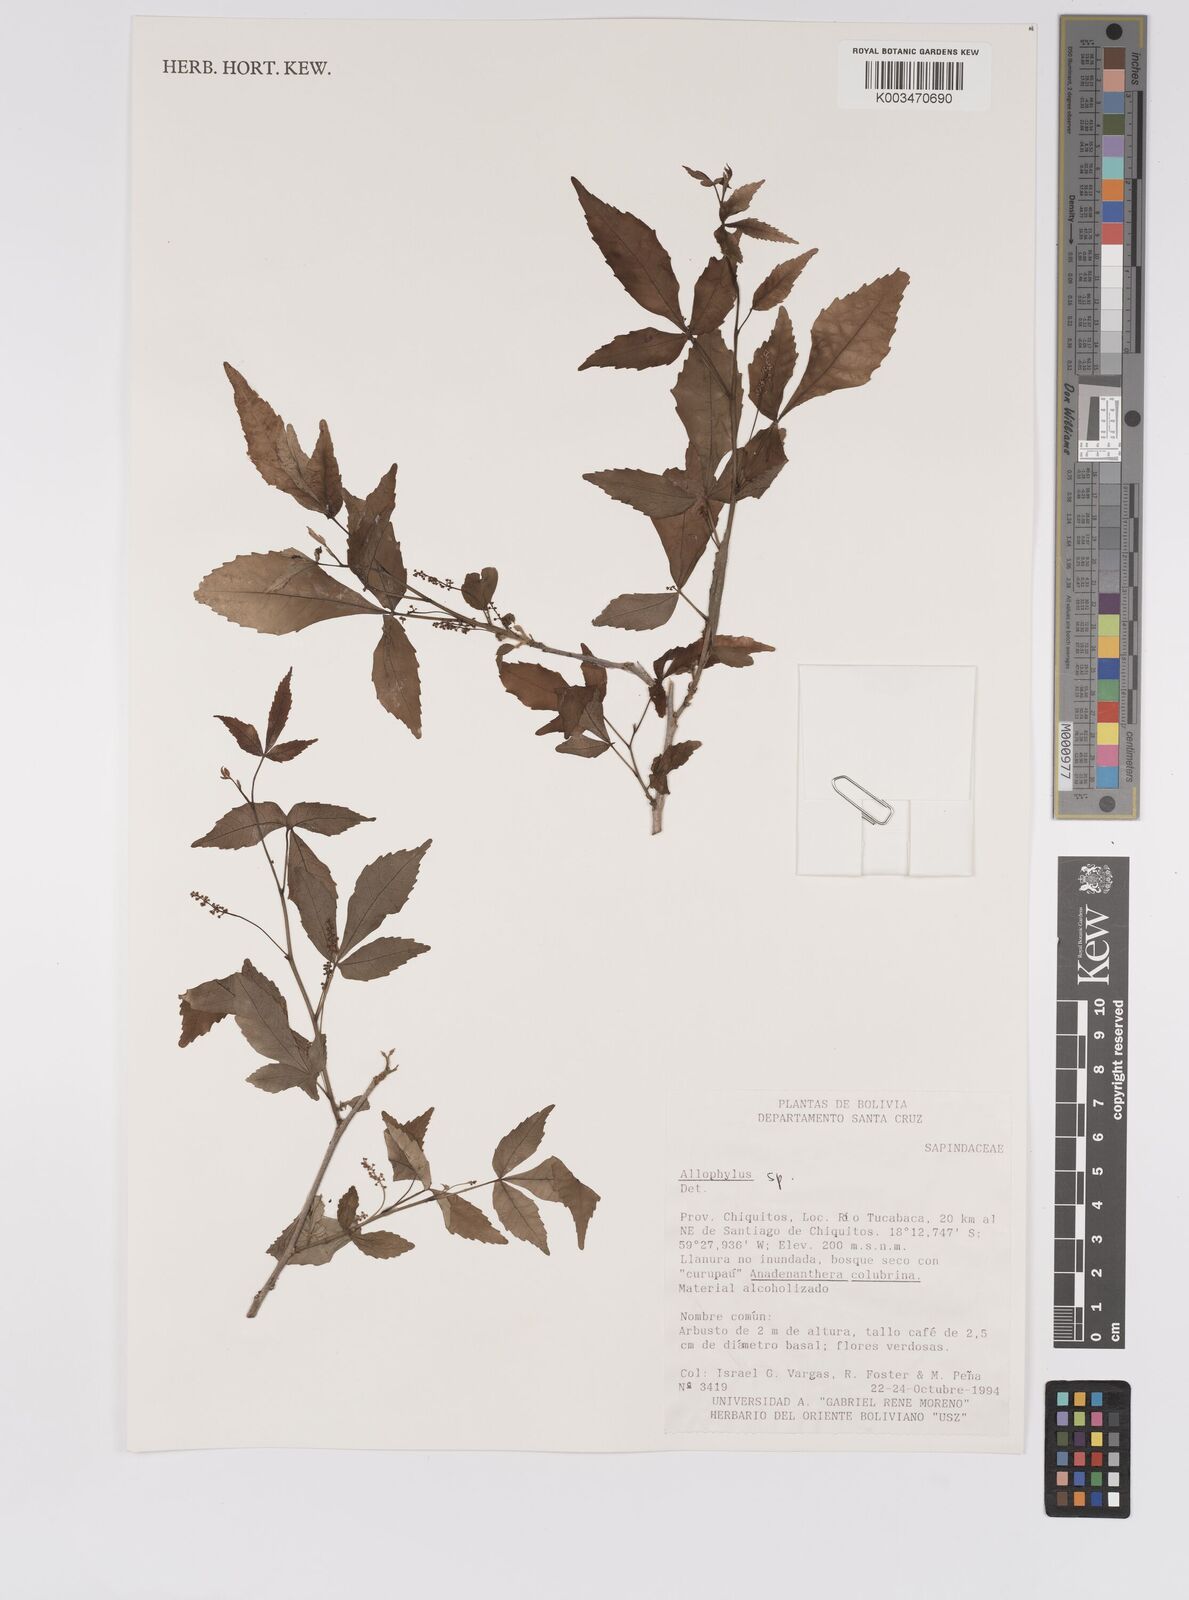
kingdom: Plantae
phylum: Tracheophyta
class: Magnoliopsida
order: Sapindales
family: Sapindaceae
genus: Allophylus
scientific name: Allophylus
